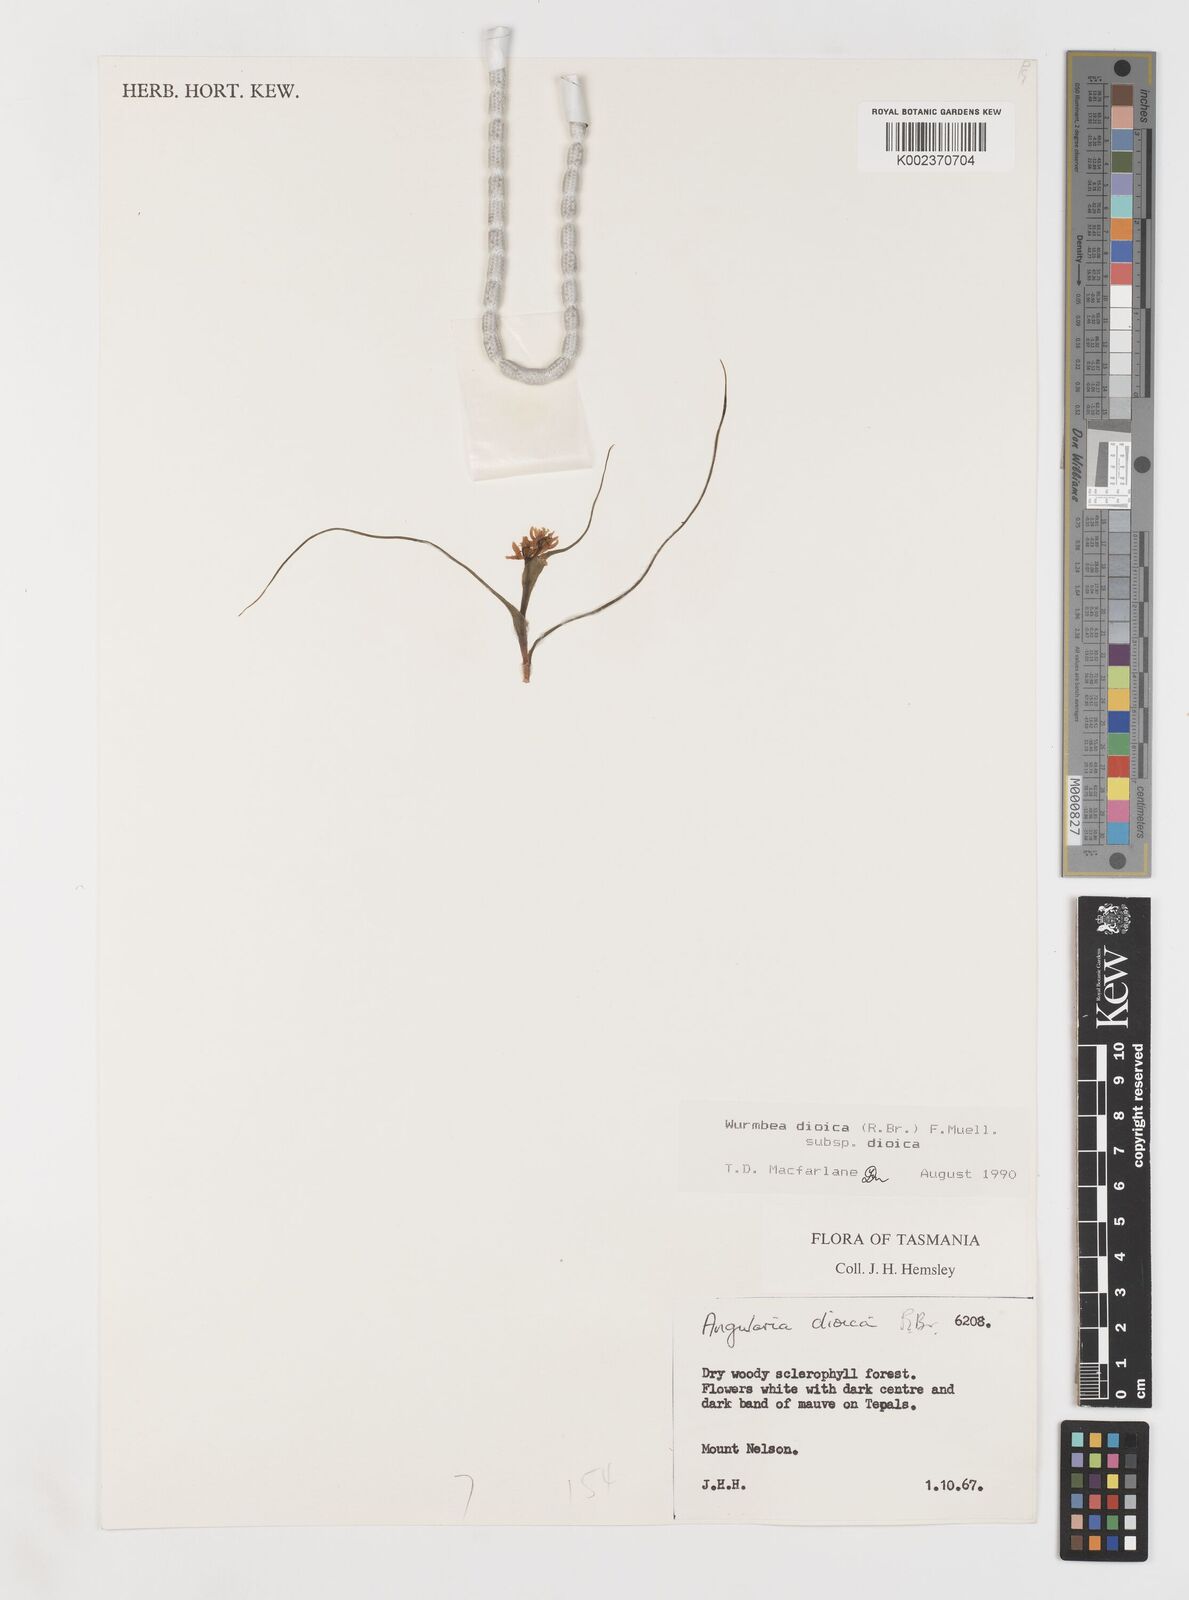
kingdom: Plantae
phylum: Tracheophyta
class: Liliopsida
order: Liliales
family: Colchicaceae
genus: Wurmbea
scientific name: Wurmbea dioica
